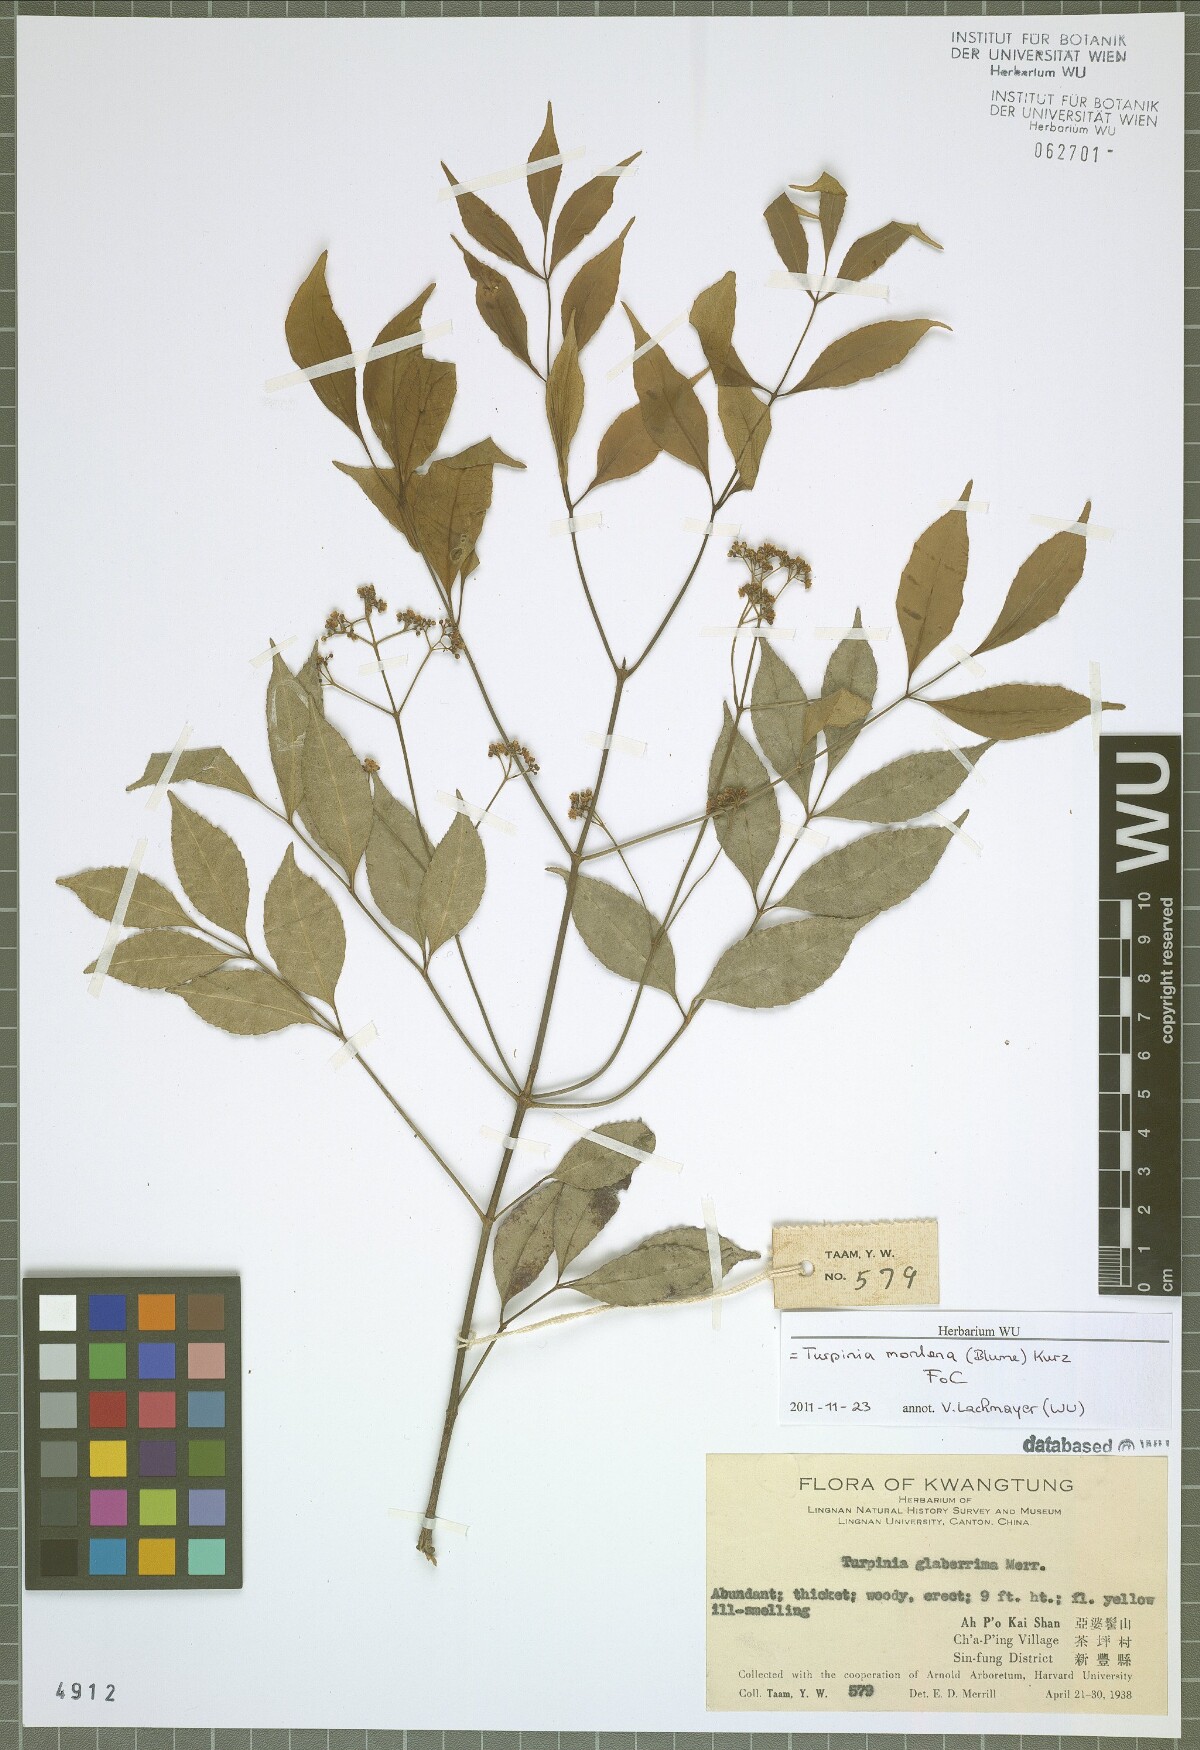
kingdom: Plantae
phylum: Tracheophyta
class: Magnoliopsida
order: Crossosomatales
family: Staphyleaceae
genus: Turpinia
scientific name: Turpinia montana
